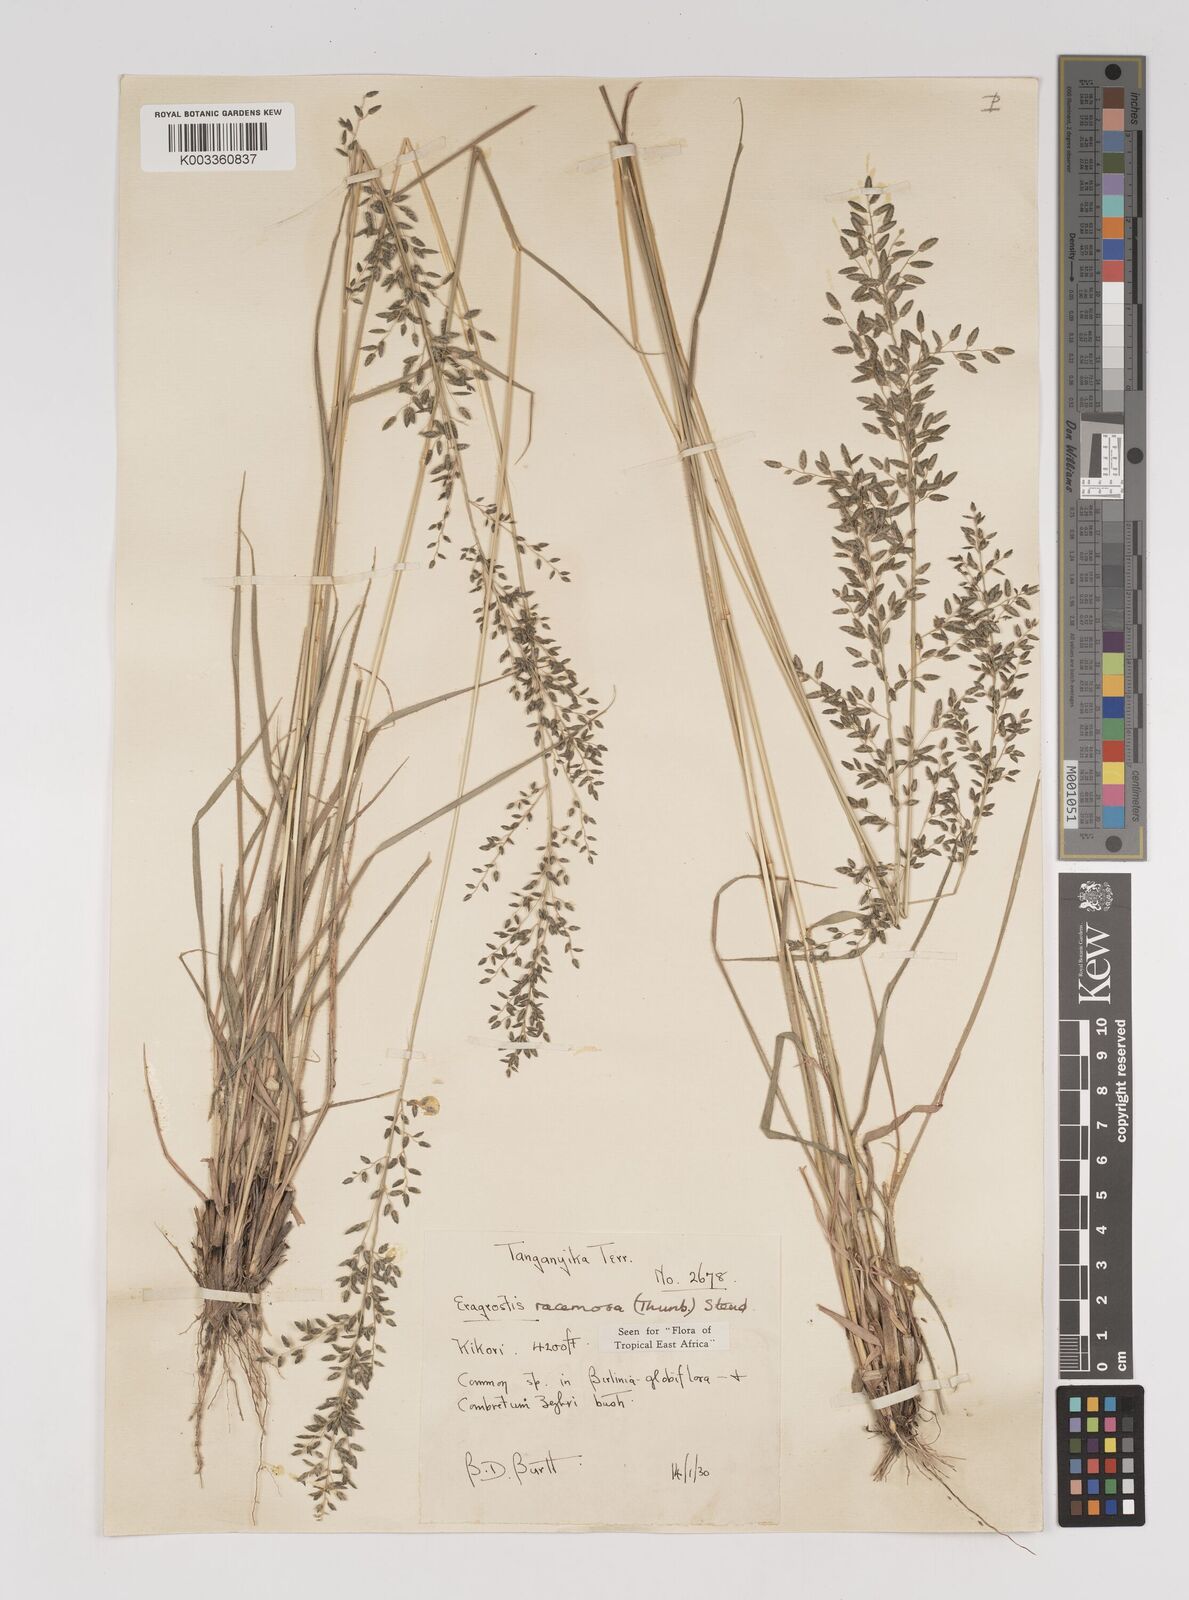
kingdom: Plantae
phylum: Tracheophyta
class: Liliopsida
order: Poales
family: Poaceae
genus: Eragrostis
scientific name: Eragrostis racemosa
